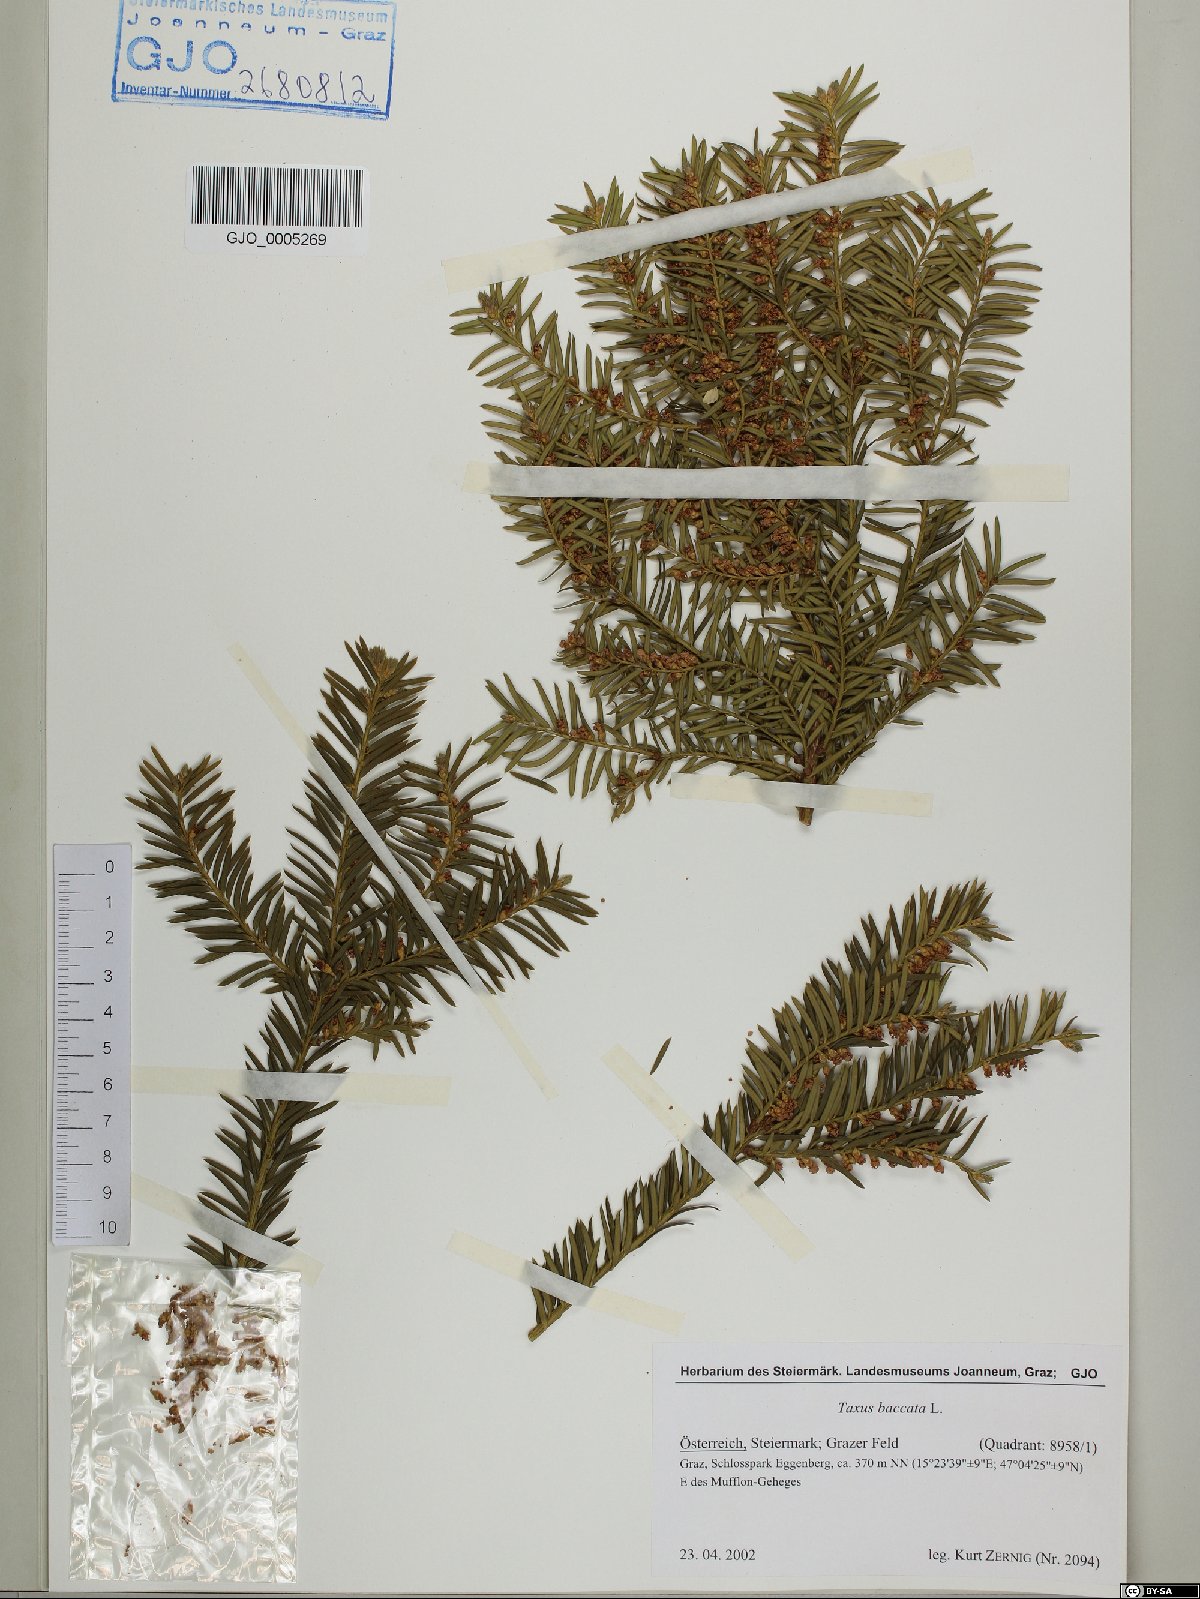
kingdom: Plantae
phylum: Tracheophyta
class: Pinopsida
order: Pinales
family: Taxaceae
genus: Taxus
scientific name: Taxus baccata
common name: Yew
